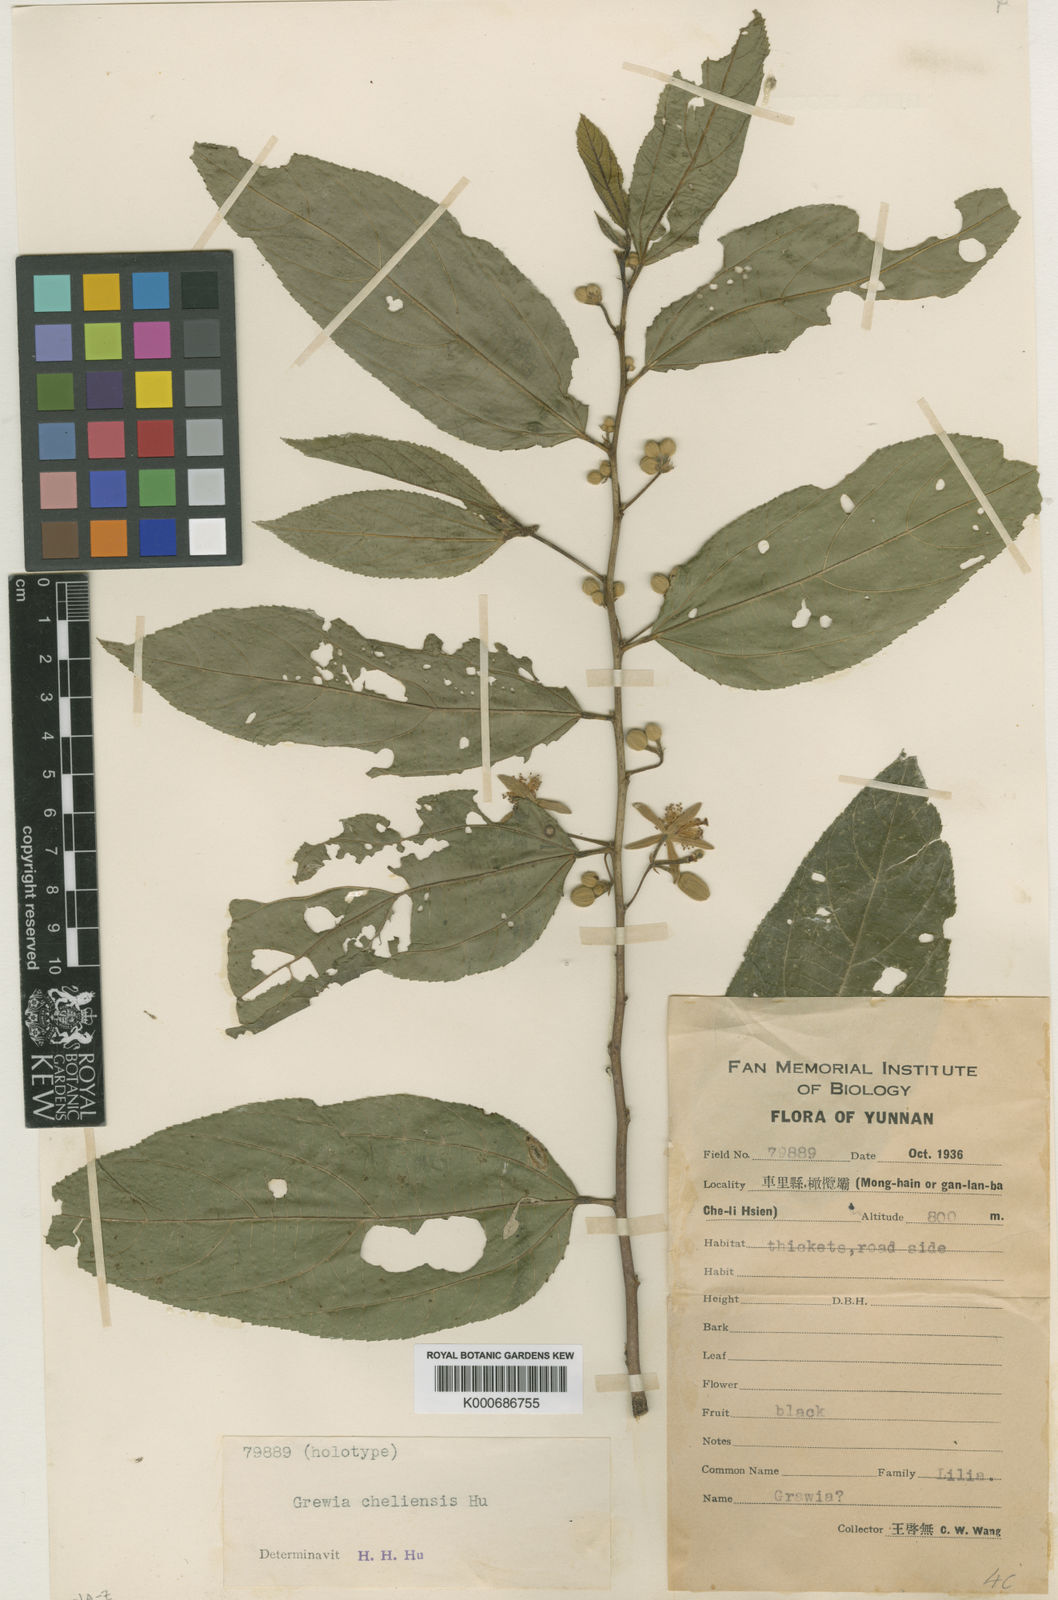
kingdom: Plantae
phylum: Tracheophyta
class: Magnoliopsida
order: Malvales
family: Malvaceae
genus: Grewia
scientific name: Grewia
